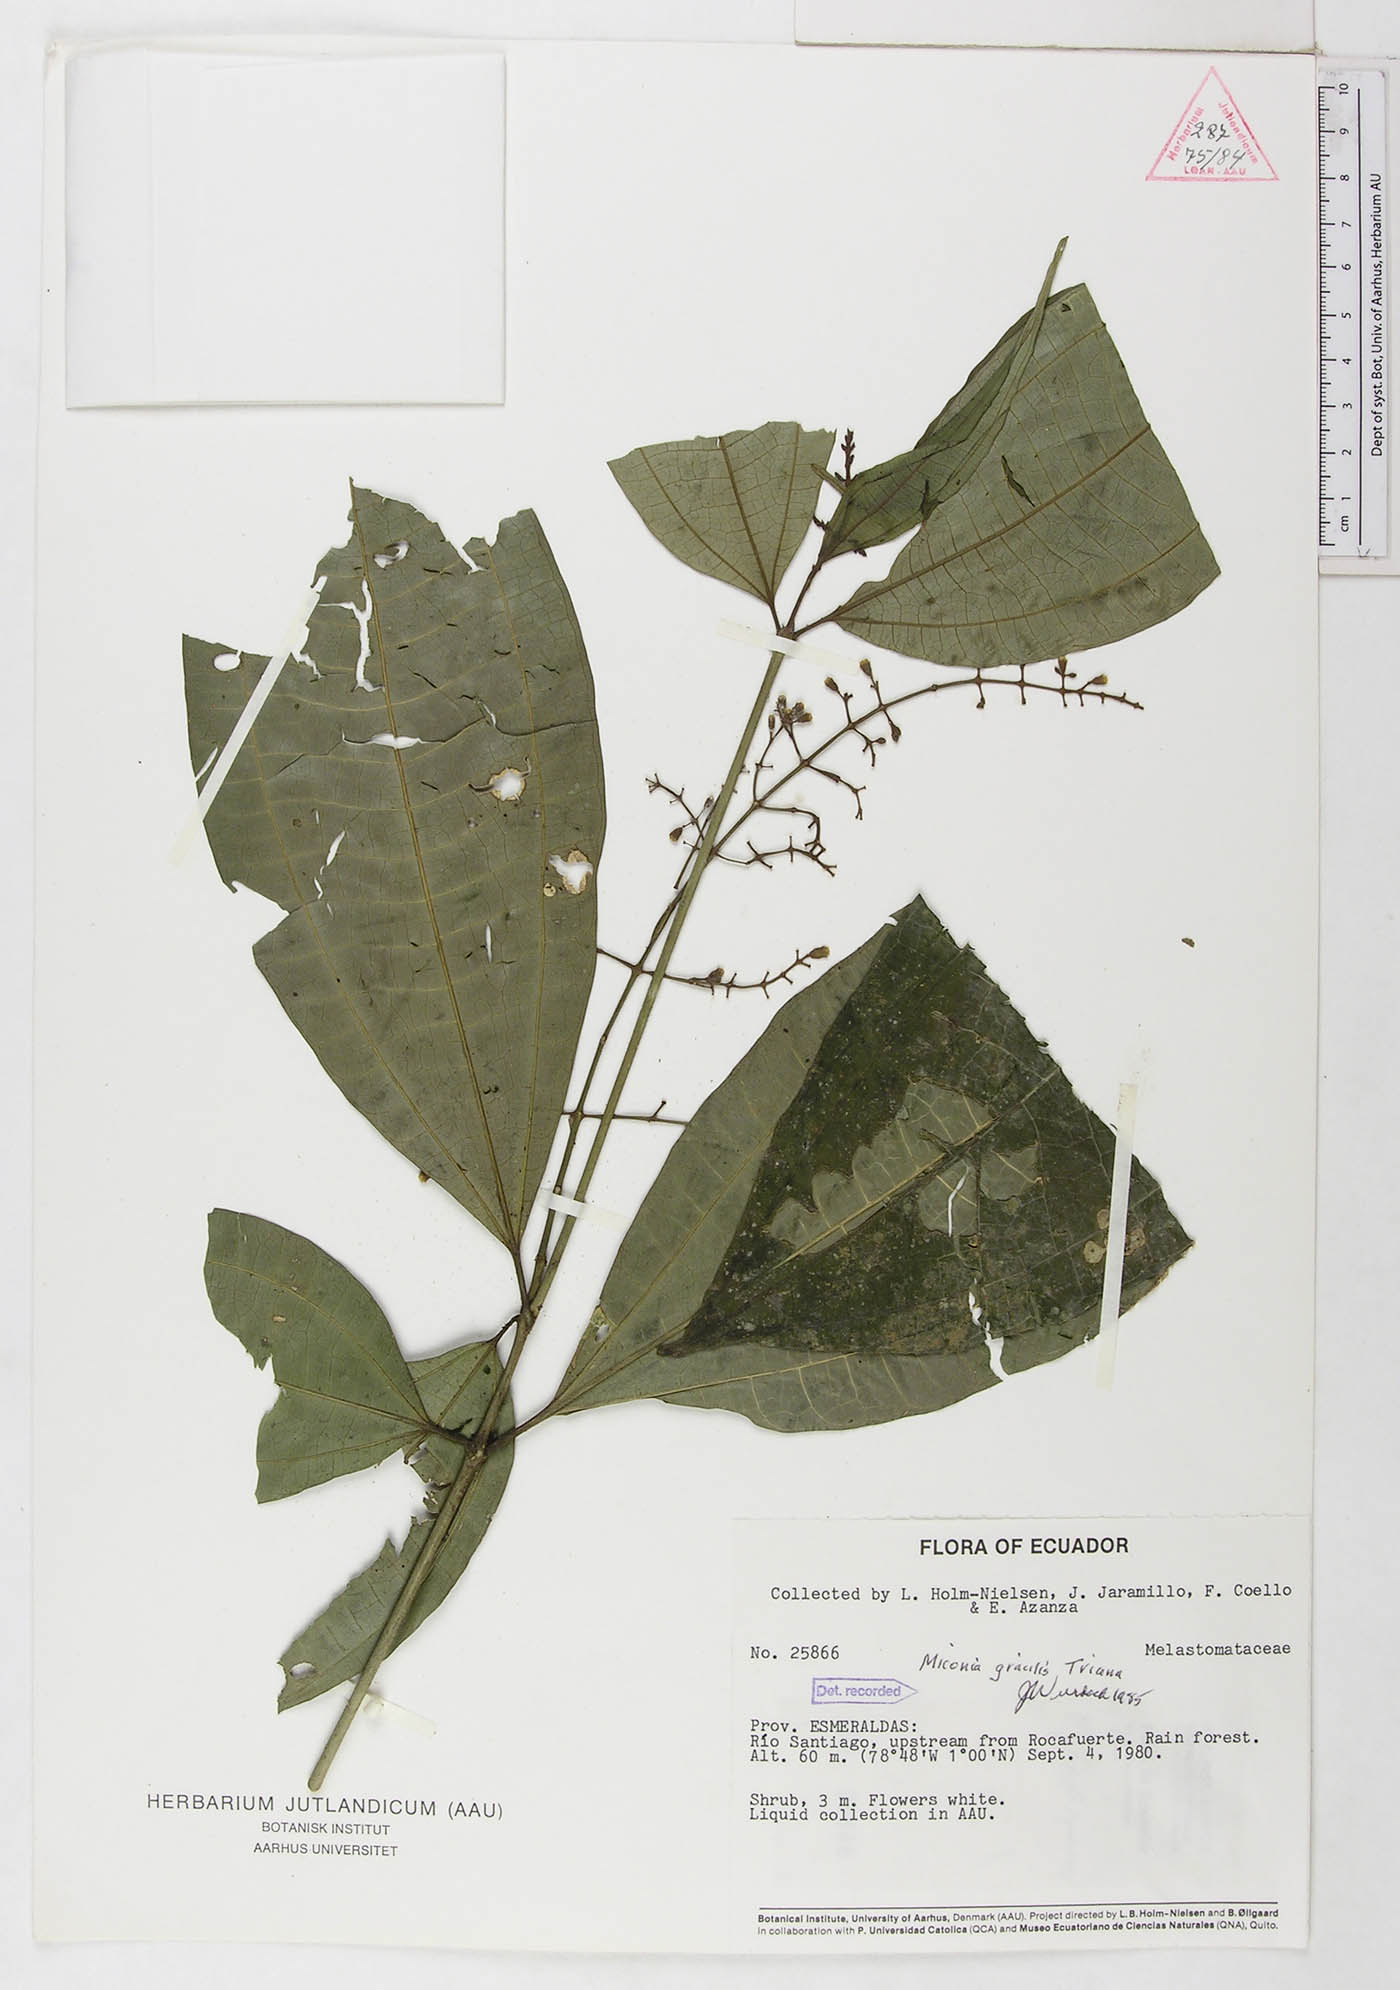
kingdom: Plantae
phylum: Tracheophyta
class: Magnoliopsida
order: Myrtales
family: Melastomataceae
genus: Miconia
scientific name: Miconia gracilis
